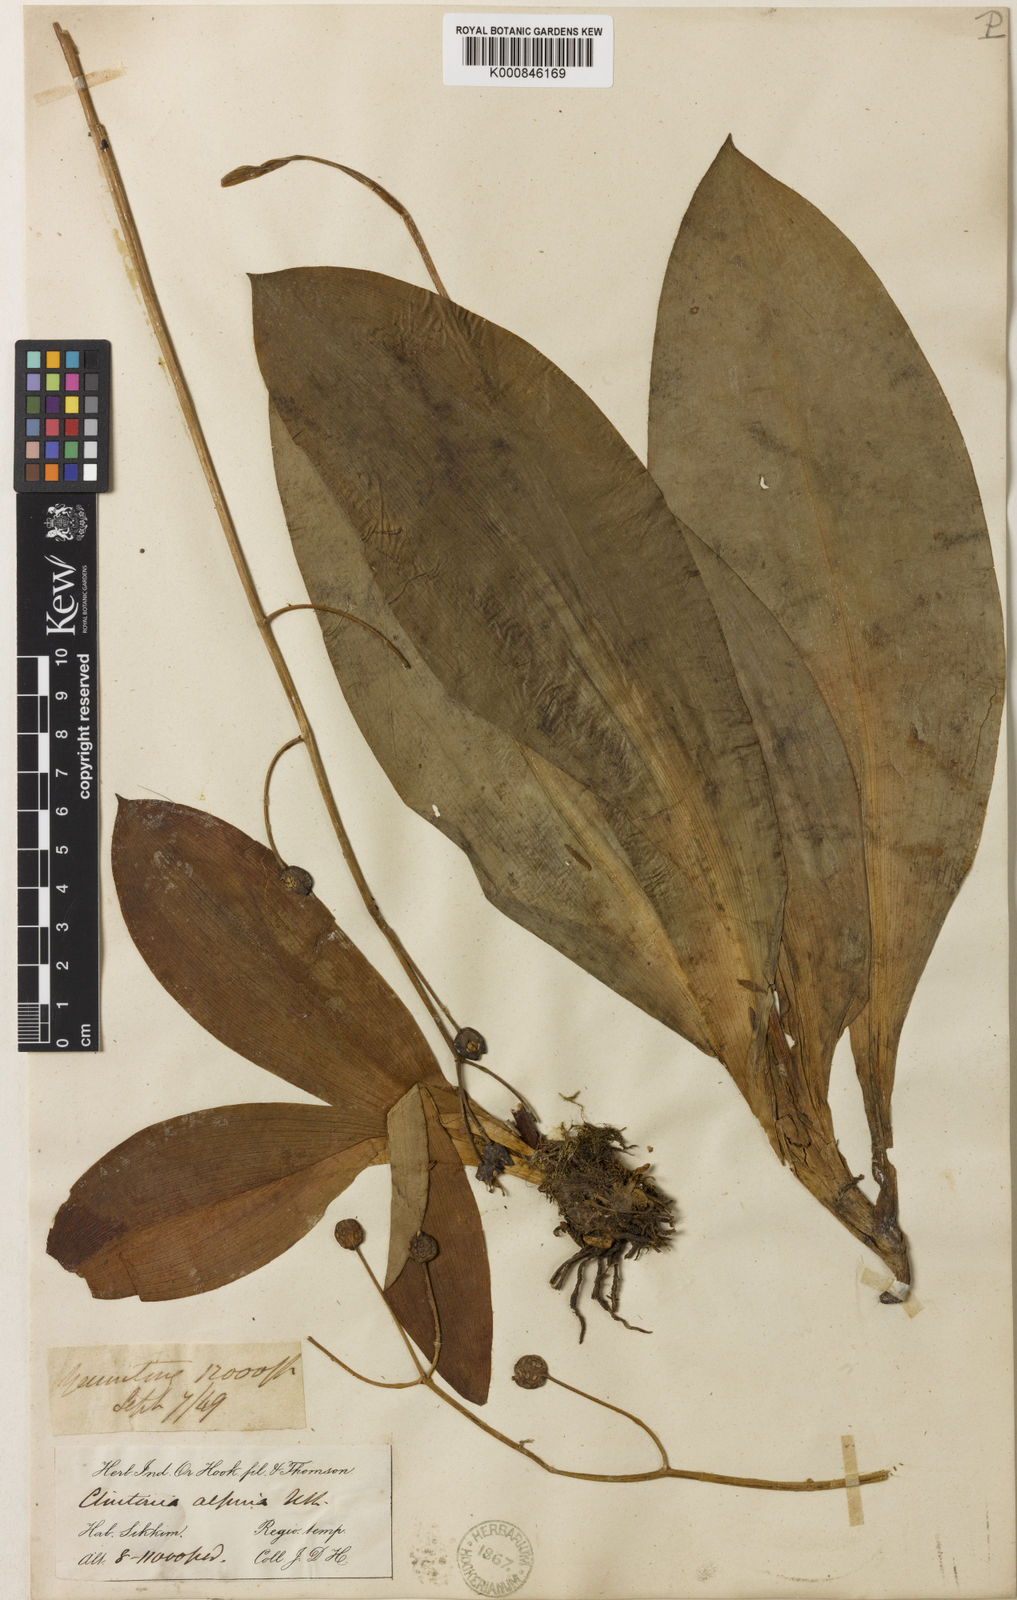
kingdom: Plantae
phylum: Tracheophyta
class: Liliopsida
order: Liliales
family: Liliaceae
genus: Clintonia
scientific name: Clintonia udensis
